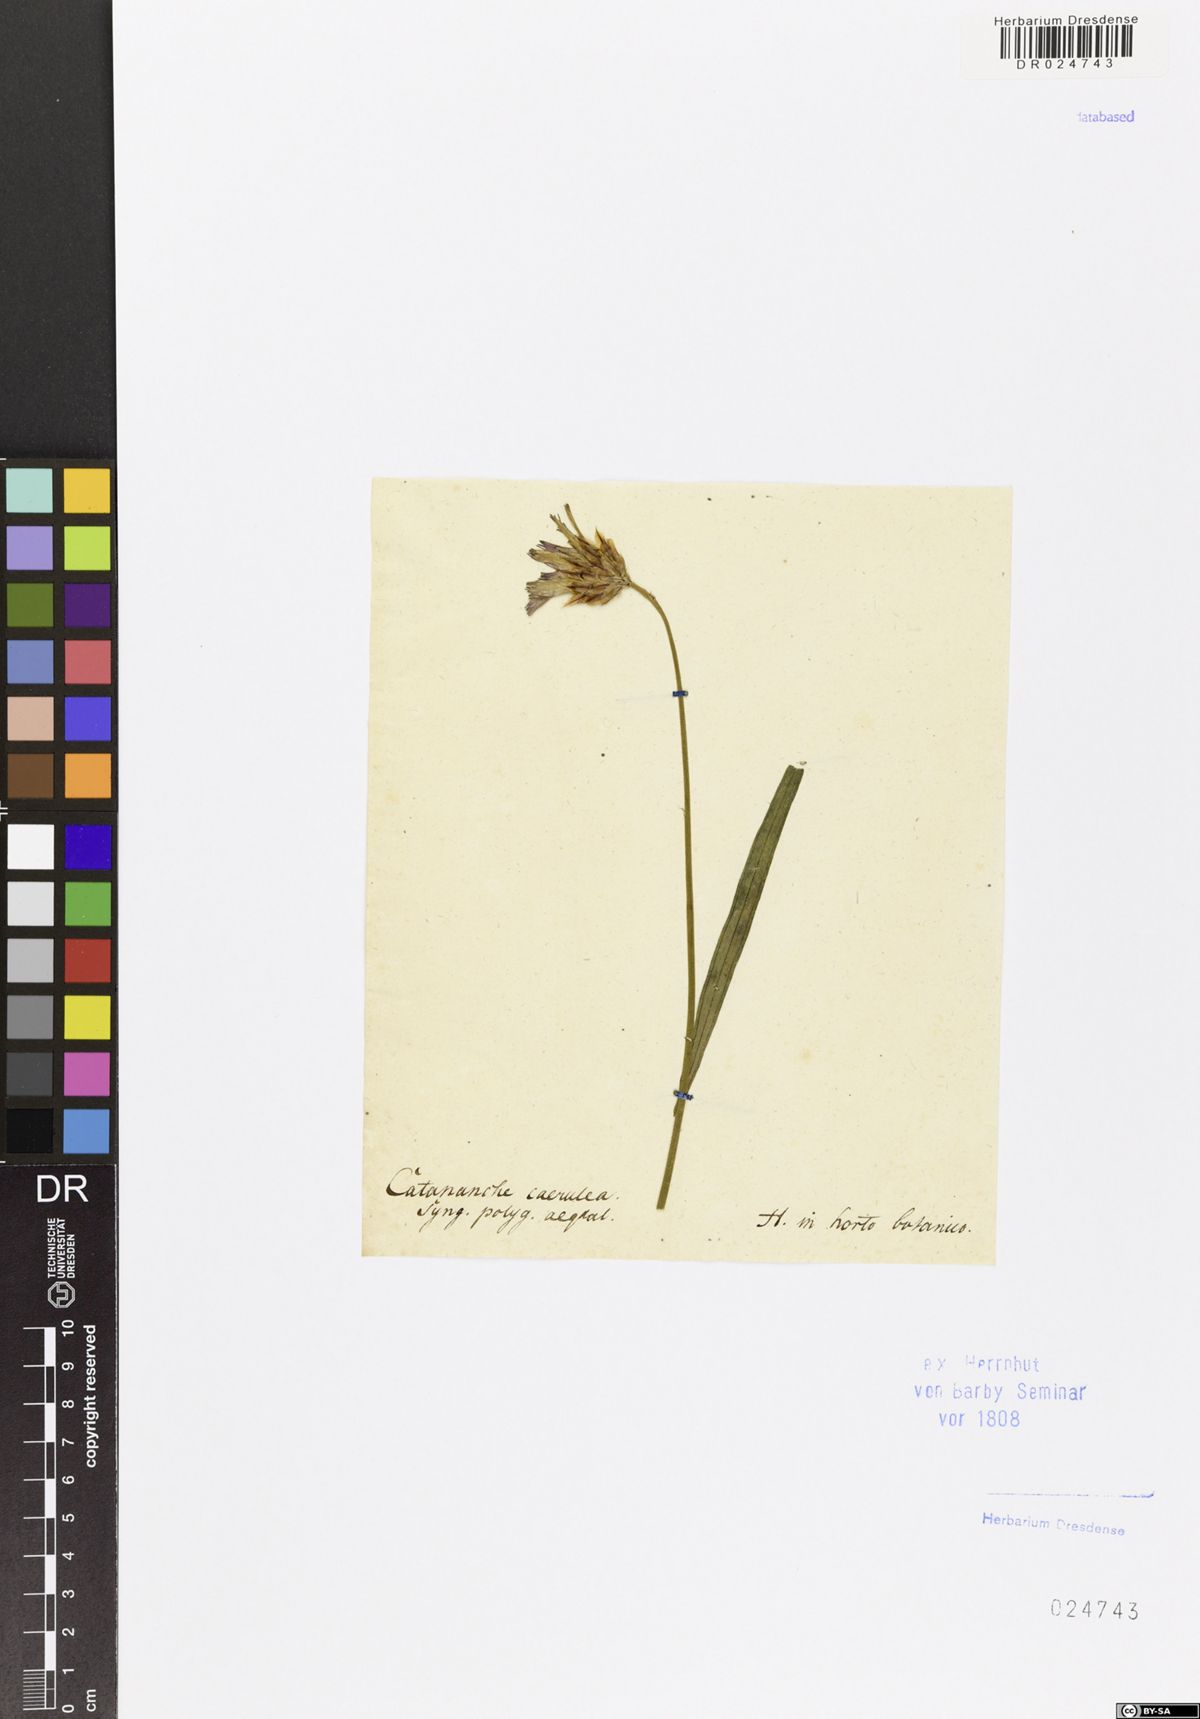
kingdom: Plantae
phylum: Tracheophyta
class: Magnoliopsida
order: Asterales
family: Asteraceae
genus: Catananche
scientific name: Catananche caerulea
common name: Blue cupidone
